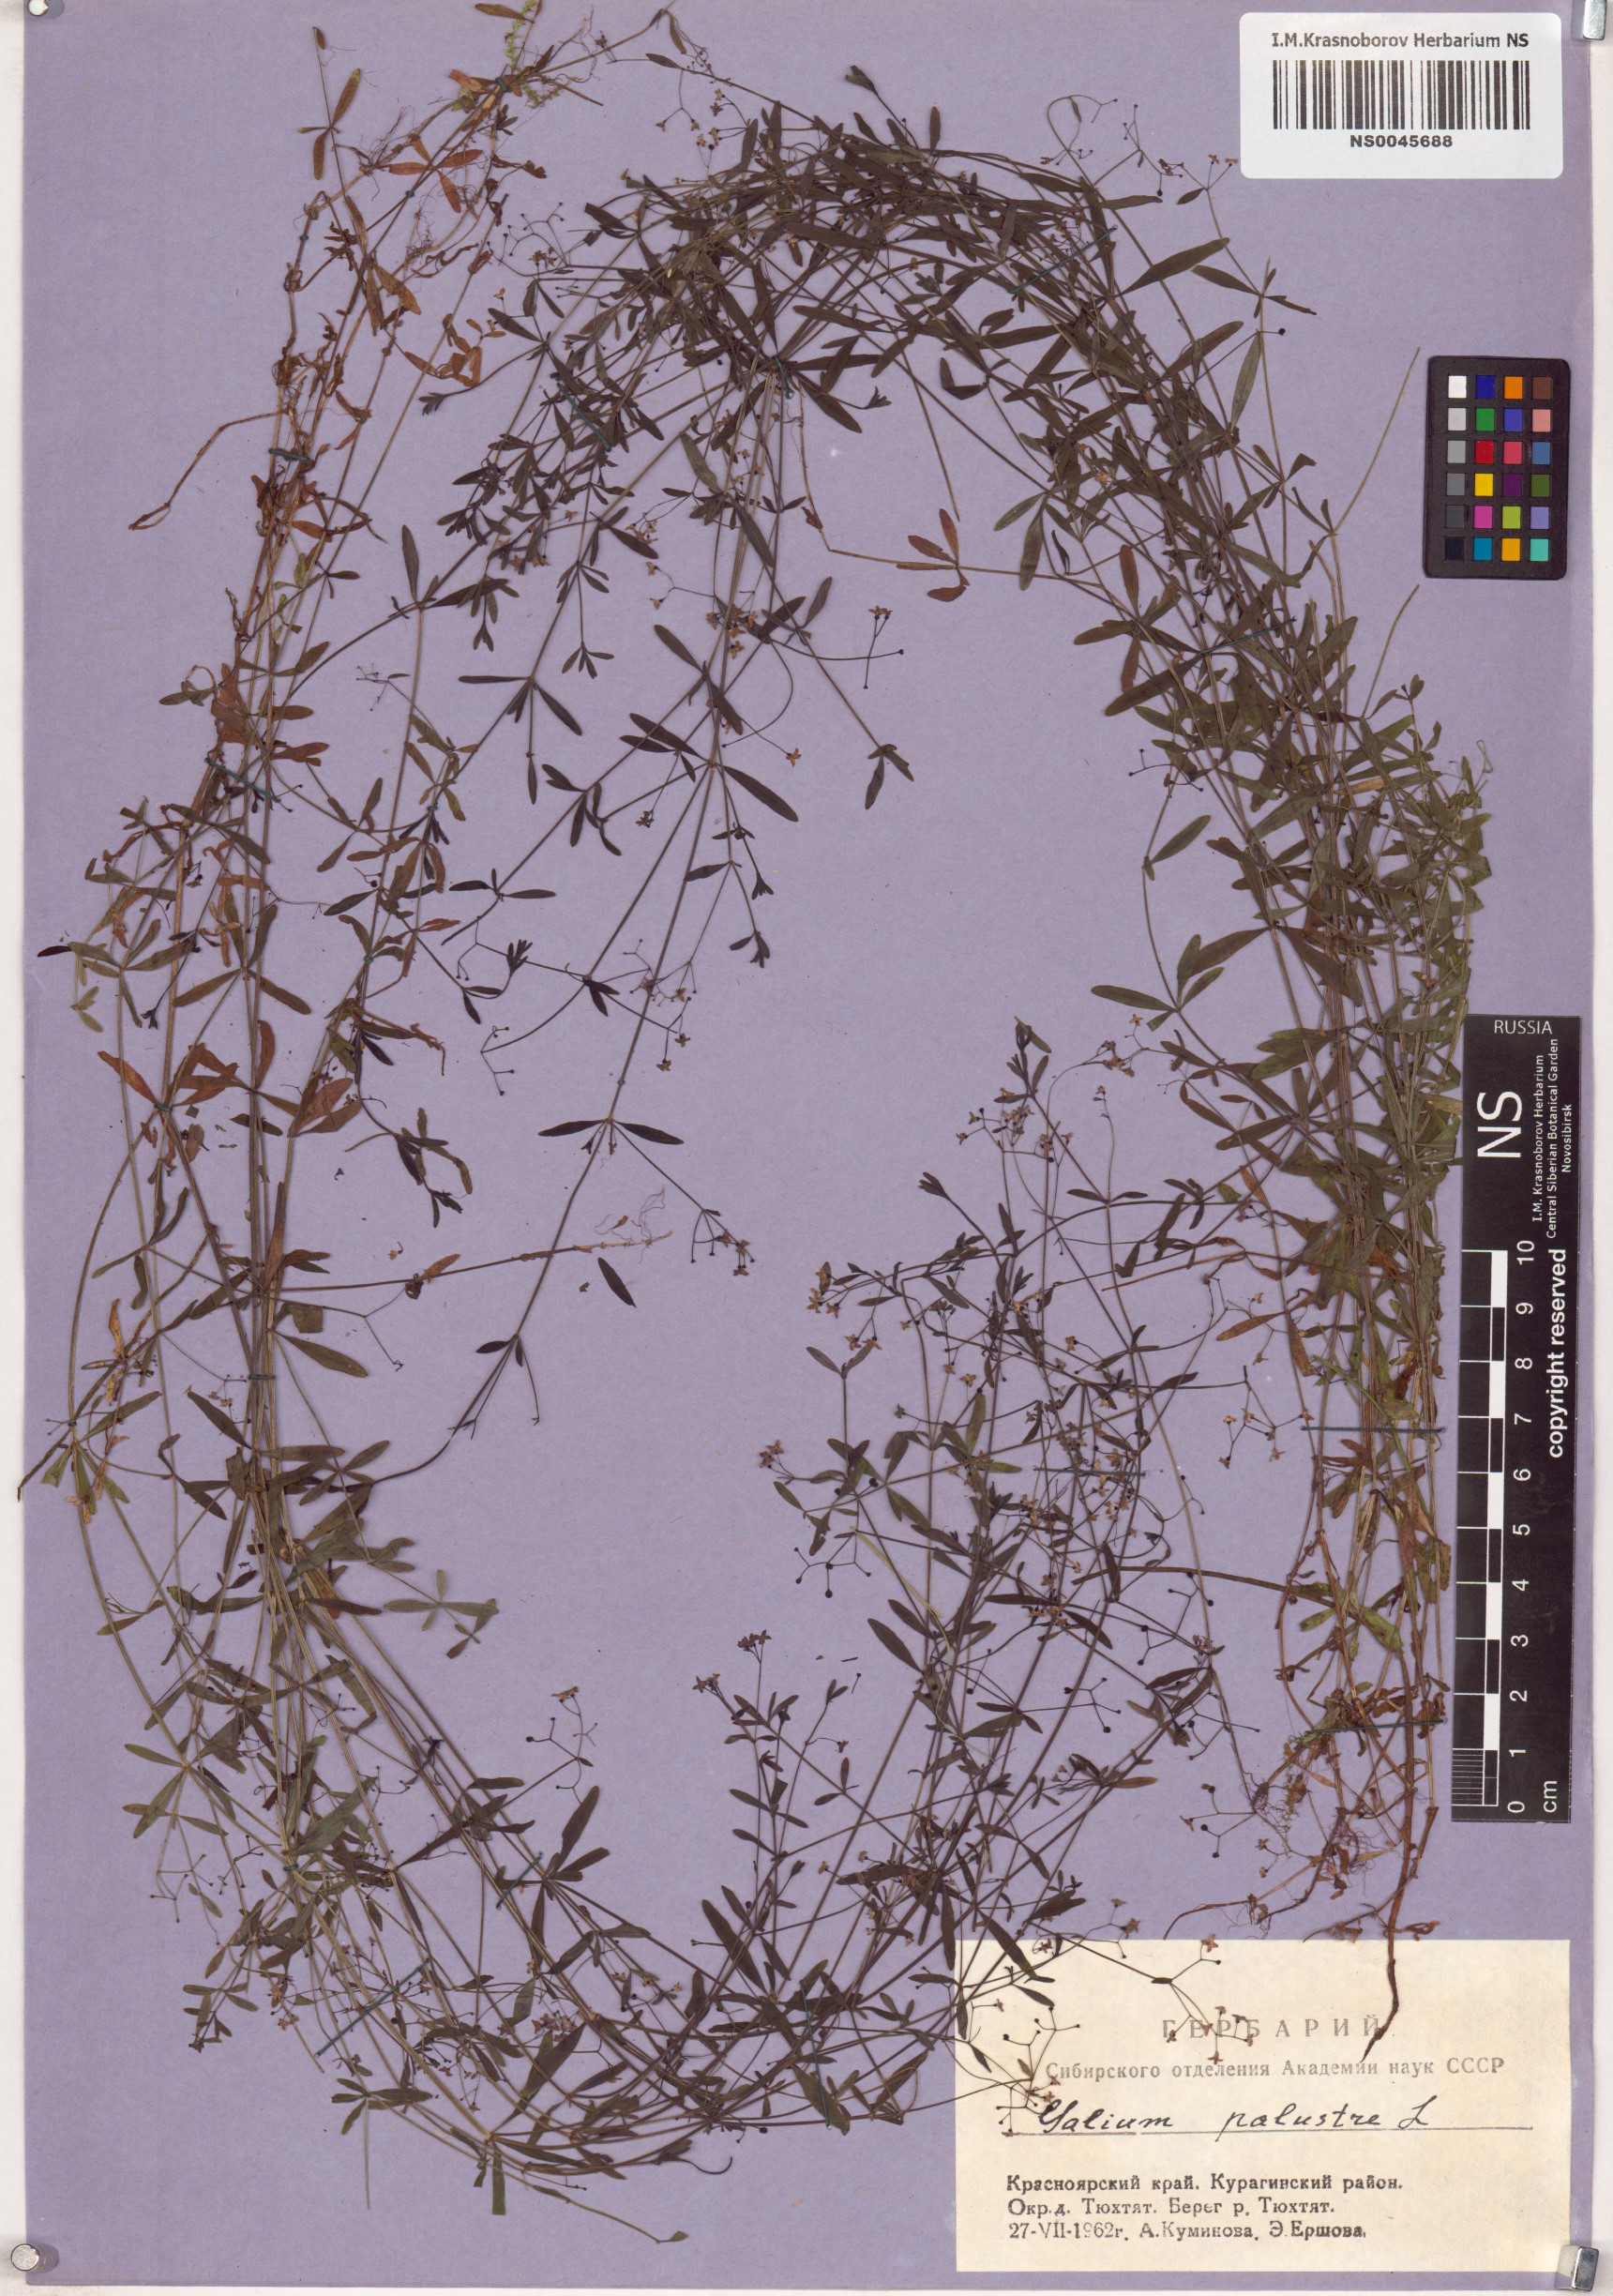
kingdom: Plantae
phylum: Tracheophyta
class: Magnoliopsida
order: Gentianales
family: Rubiaceae
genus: Galium
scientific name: Galium palustre
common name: Common marsh-bedstraw
